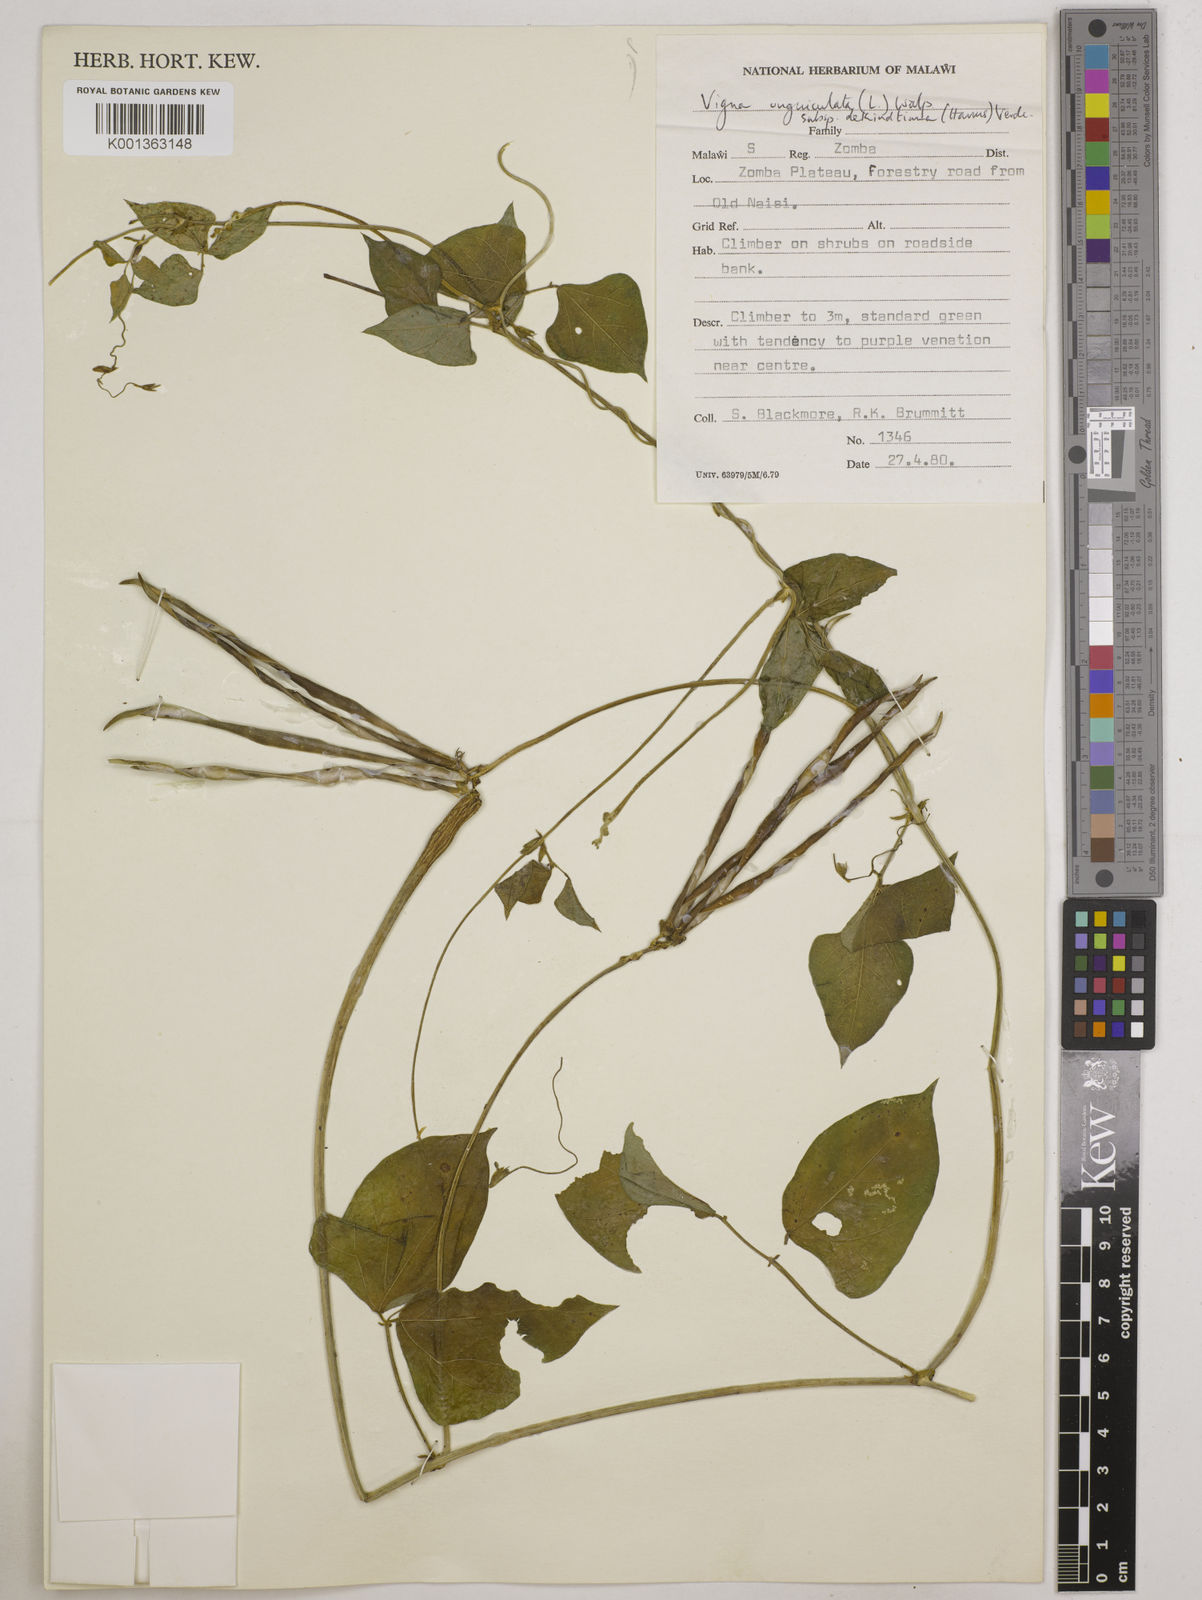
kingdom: Plantae
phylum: Tracheophyta
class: Magnoliopsida
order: Fabales
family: Fabaceae
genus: Vigna
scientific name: Vigna unguiculata
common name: Cowpea
